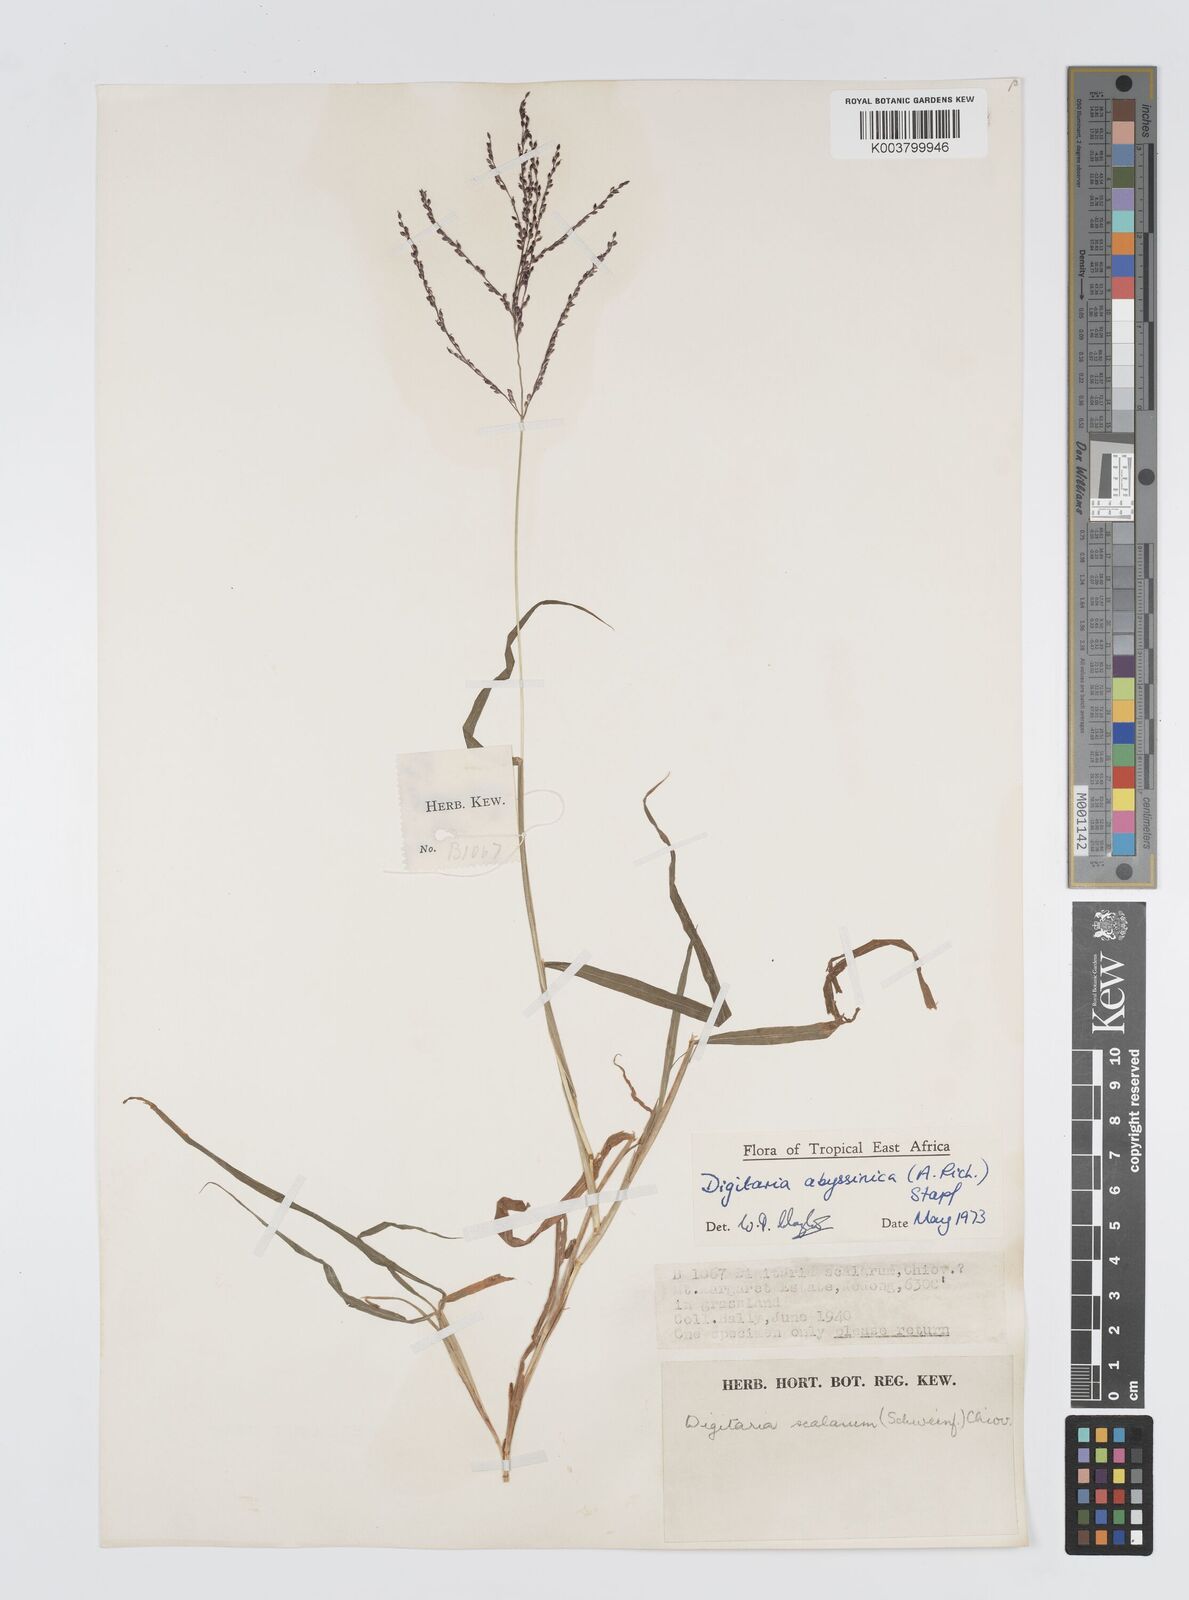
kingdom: Plantae
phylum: Tracheophyta
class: Liliopsida
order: Poales
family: Poaceae
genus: Digitaria
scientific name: Digitaria abyssinica
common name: African couchgrass
